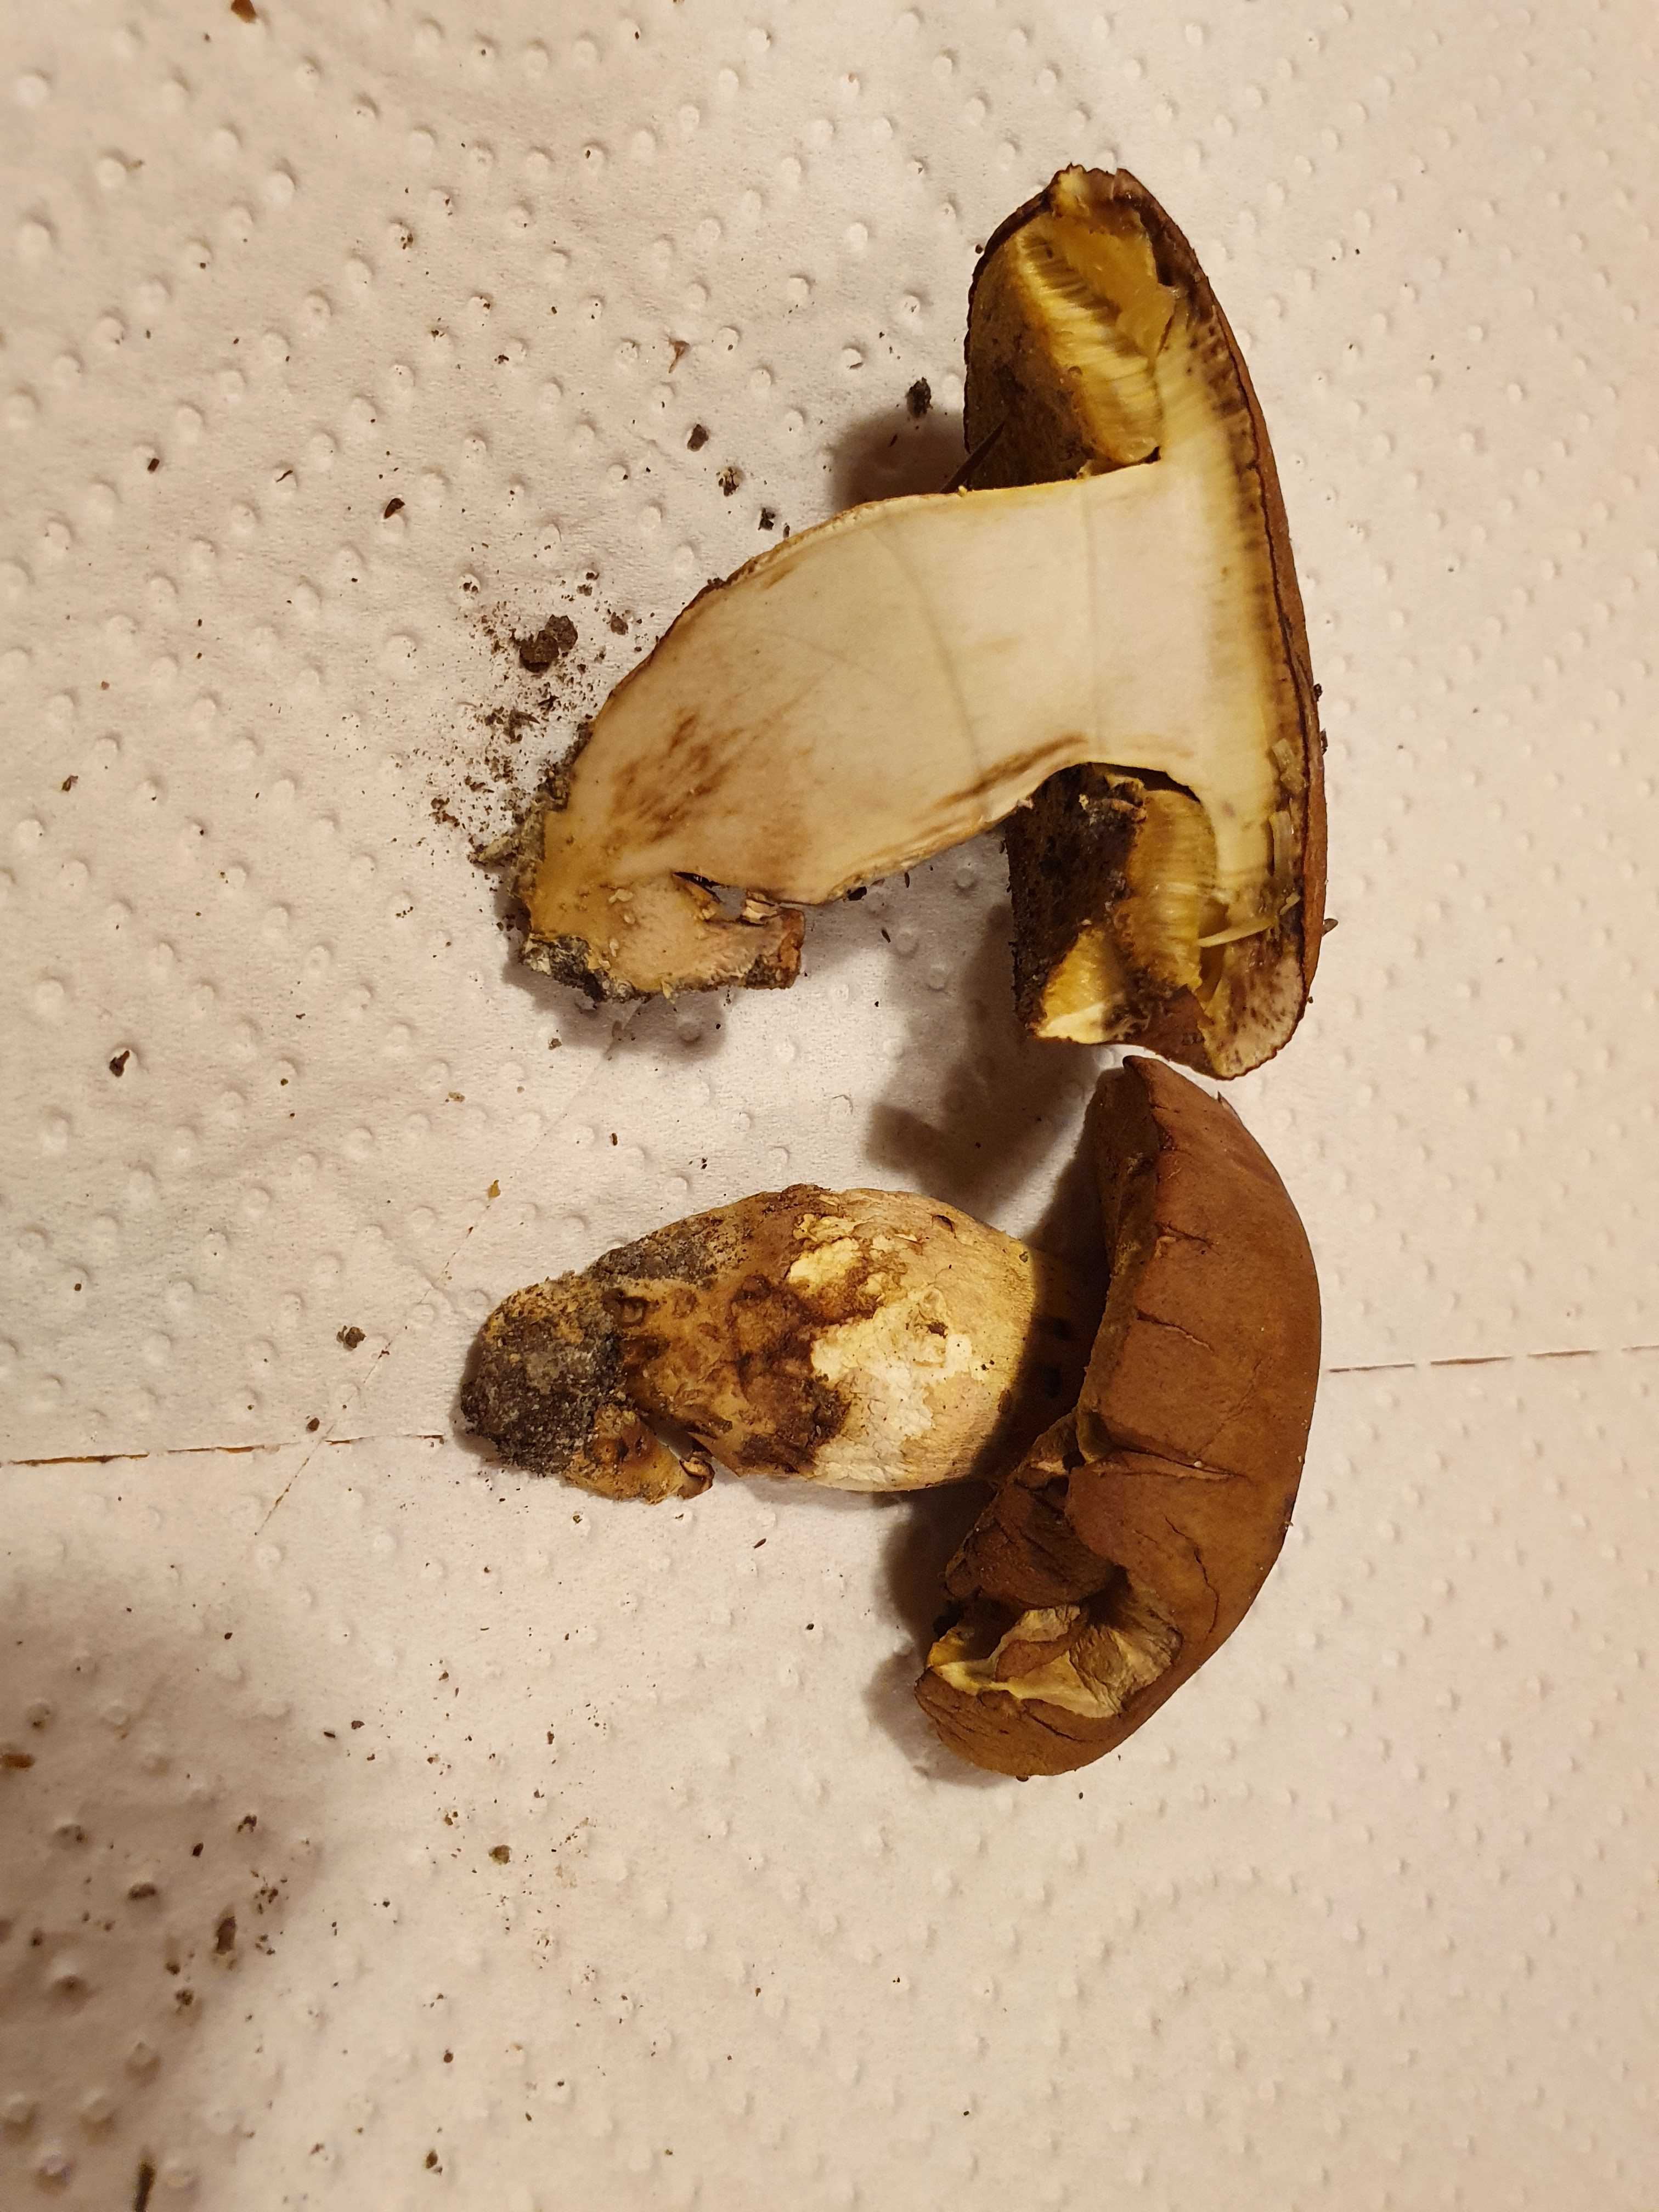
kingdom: Fungi
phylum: Basidiomycota
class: Agaricomycetes
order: Boletales
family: Boletaceae
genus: Butyriboletus
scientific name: Butyriboletus appendiculatus
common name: tenstokket rørhat
